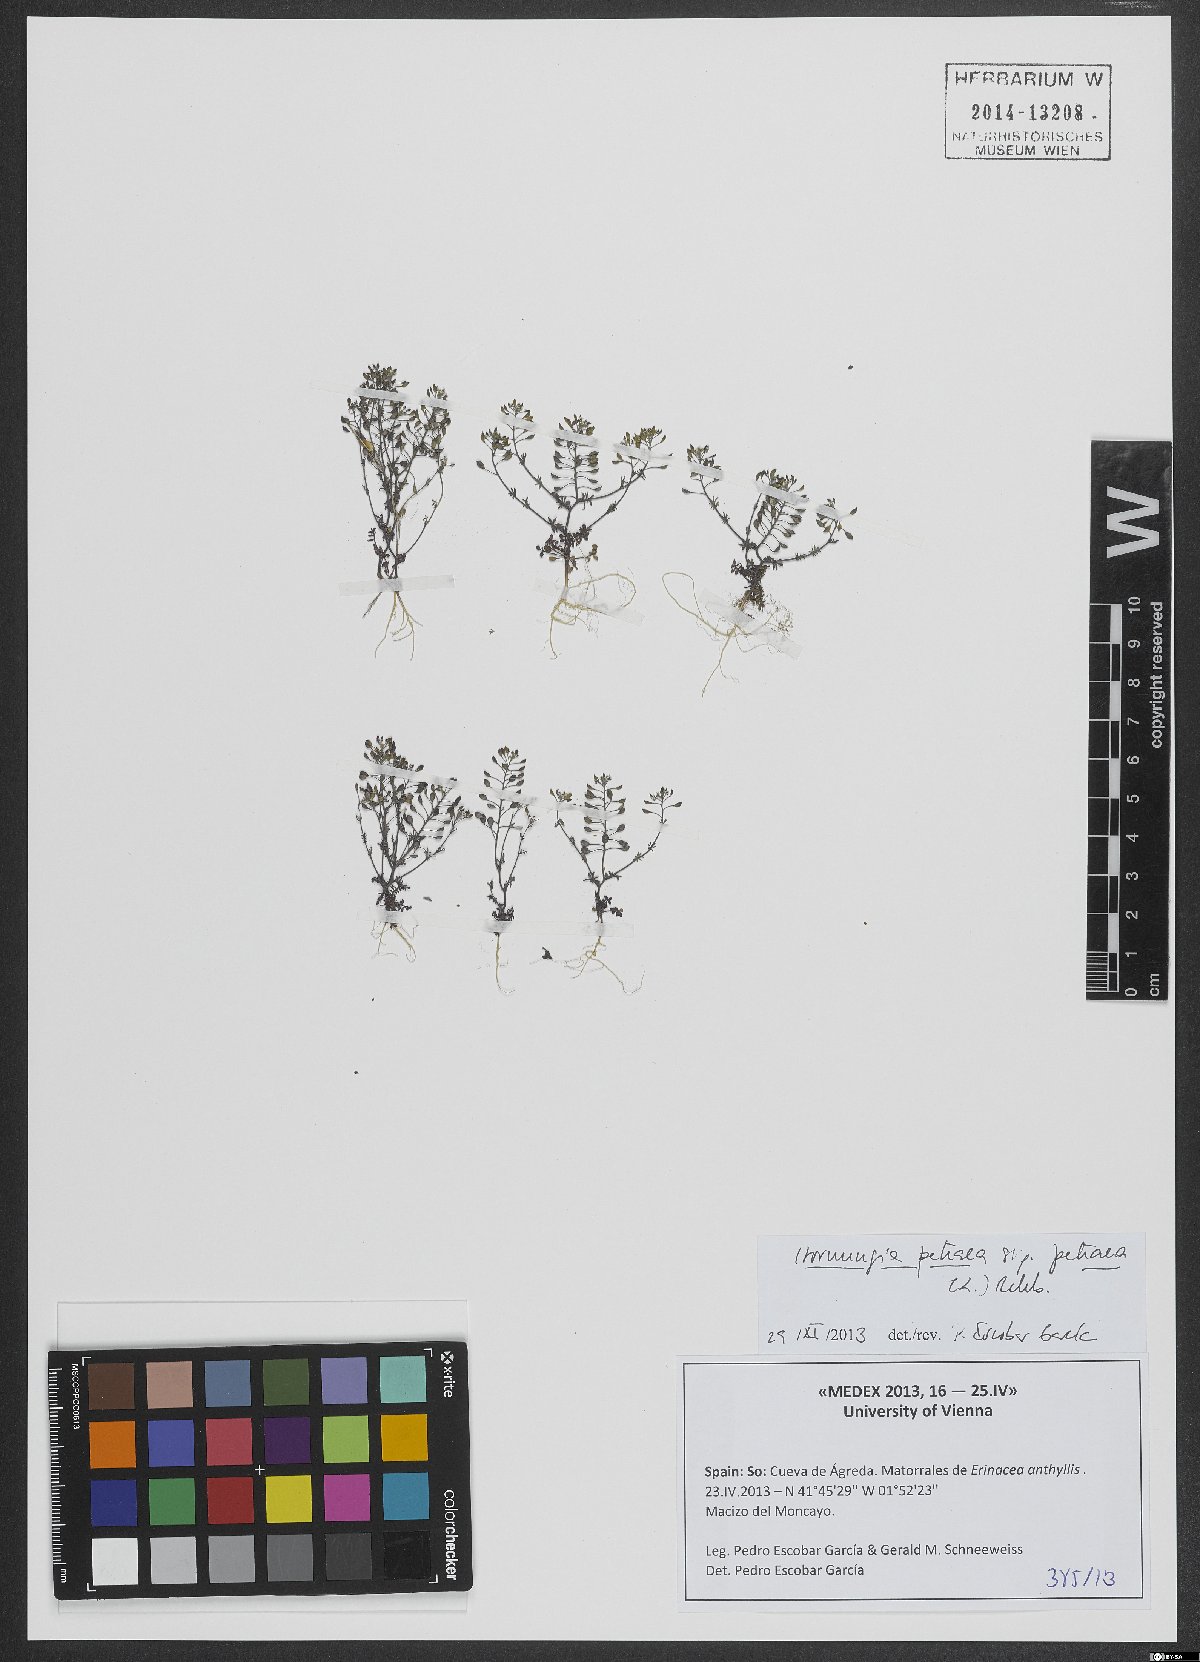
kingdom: Plantae
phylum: Tracheophyta
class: Magnoliopsida
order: Brassicales
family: Brassicaceae
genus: Hornungia
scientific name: Hornungia petraea
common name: Hutchinsia
